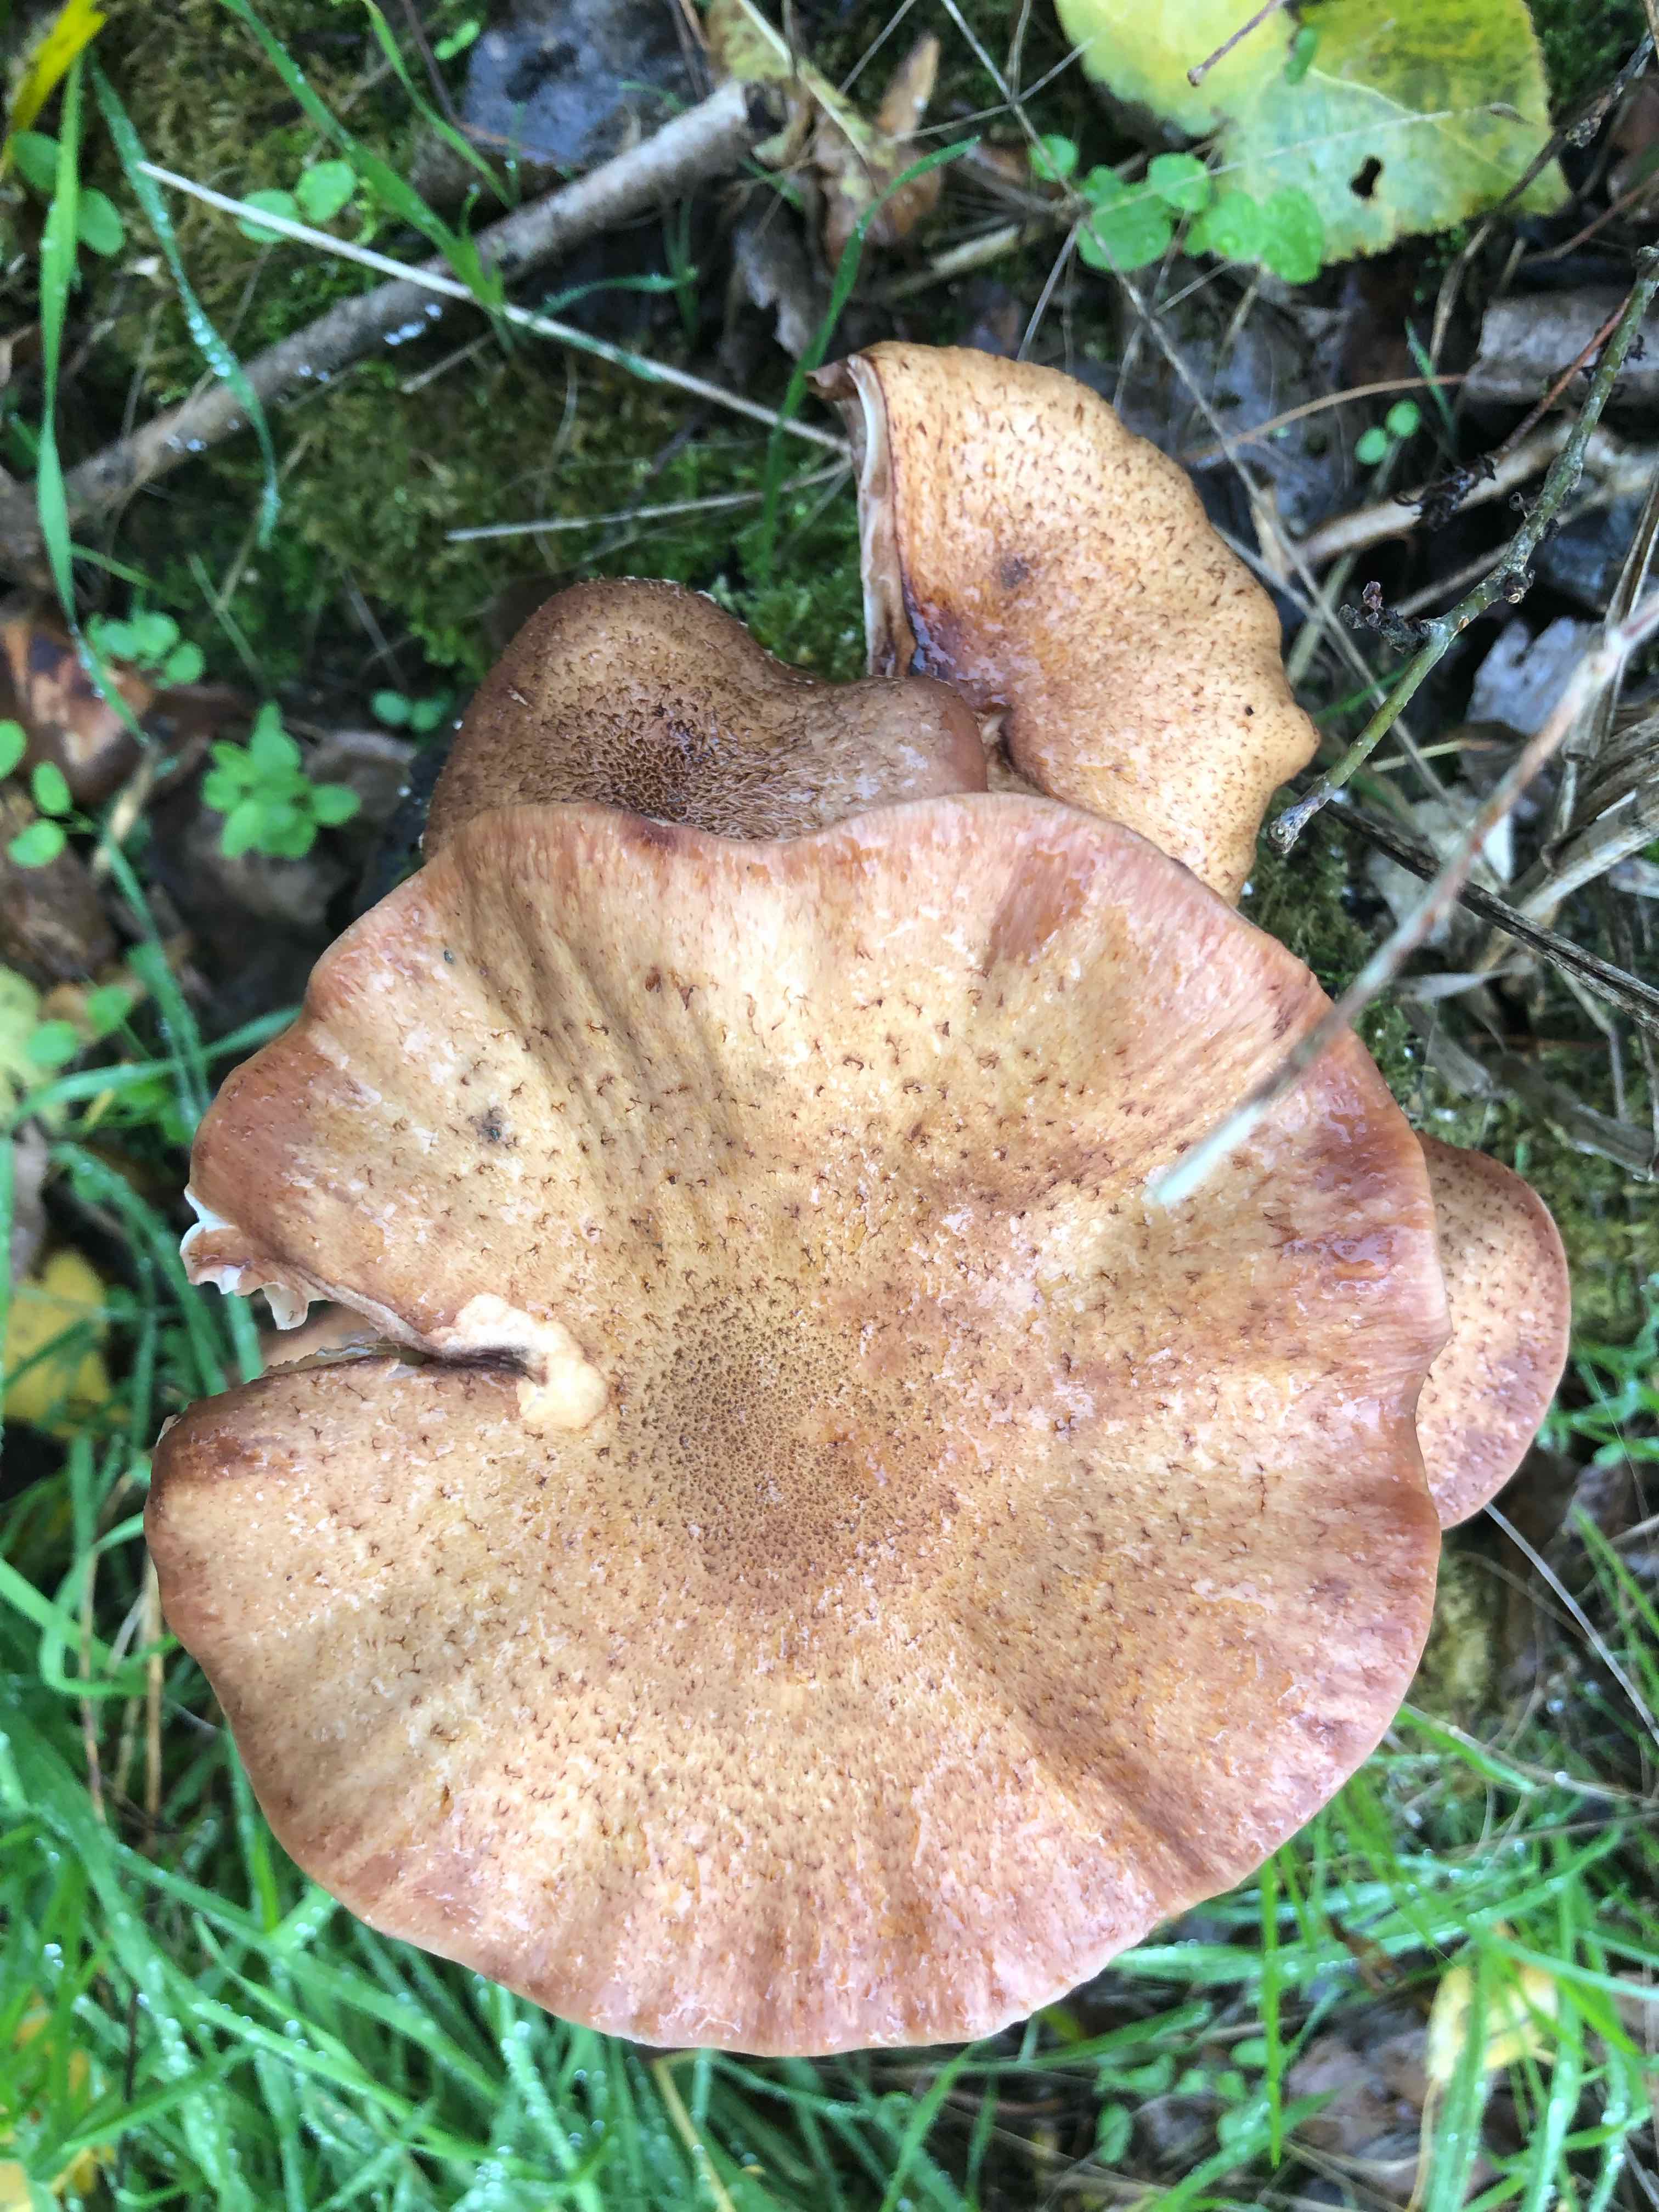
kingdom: Fungi
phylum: Basidiomycota
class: Agaricomycetes
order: Agaricales
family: Physalacriaceae
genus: Armillaria
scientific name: Armillaria
